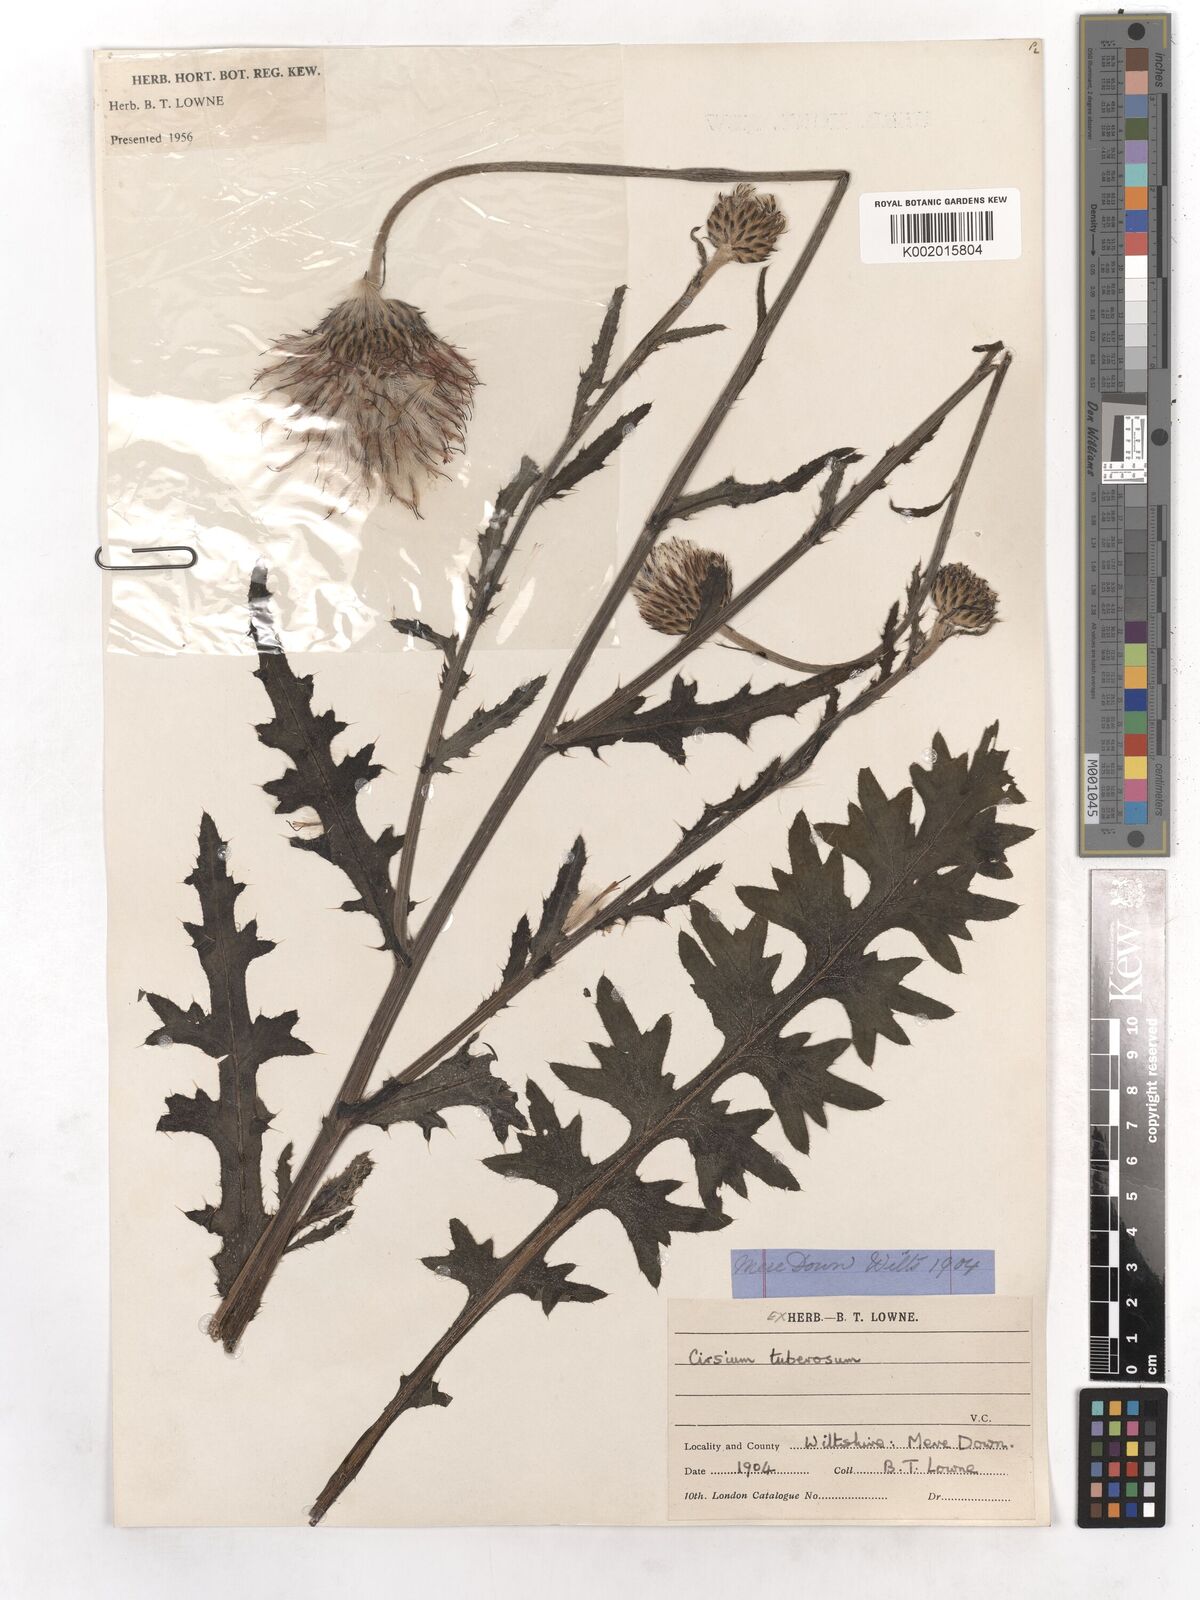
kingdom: Plantae
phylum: Tracheophyta
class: Magnoliopsida
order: Asterales
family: Asteraceae
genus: Cirsium
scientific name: Cirsium tuberosum
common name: Tuberous thistle
